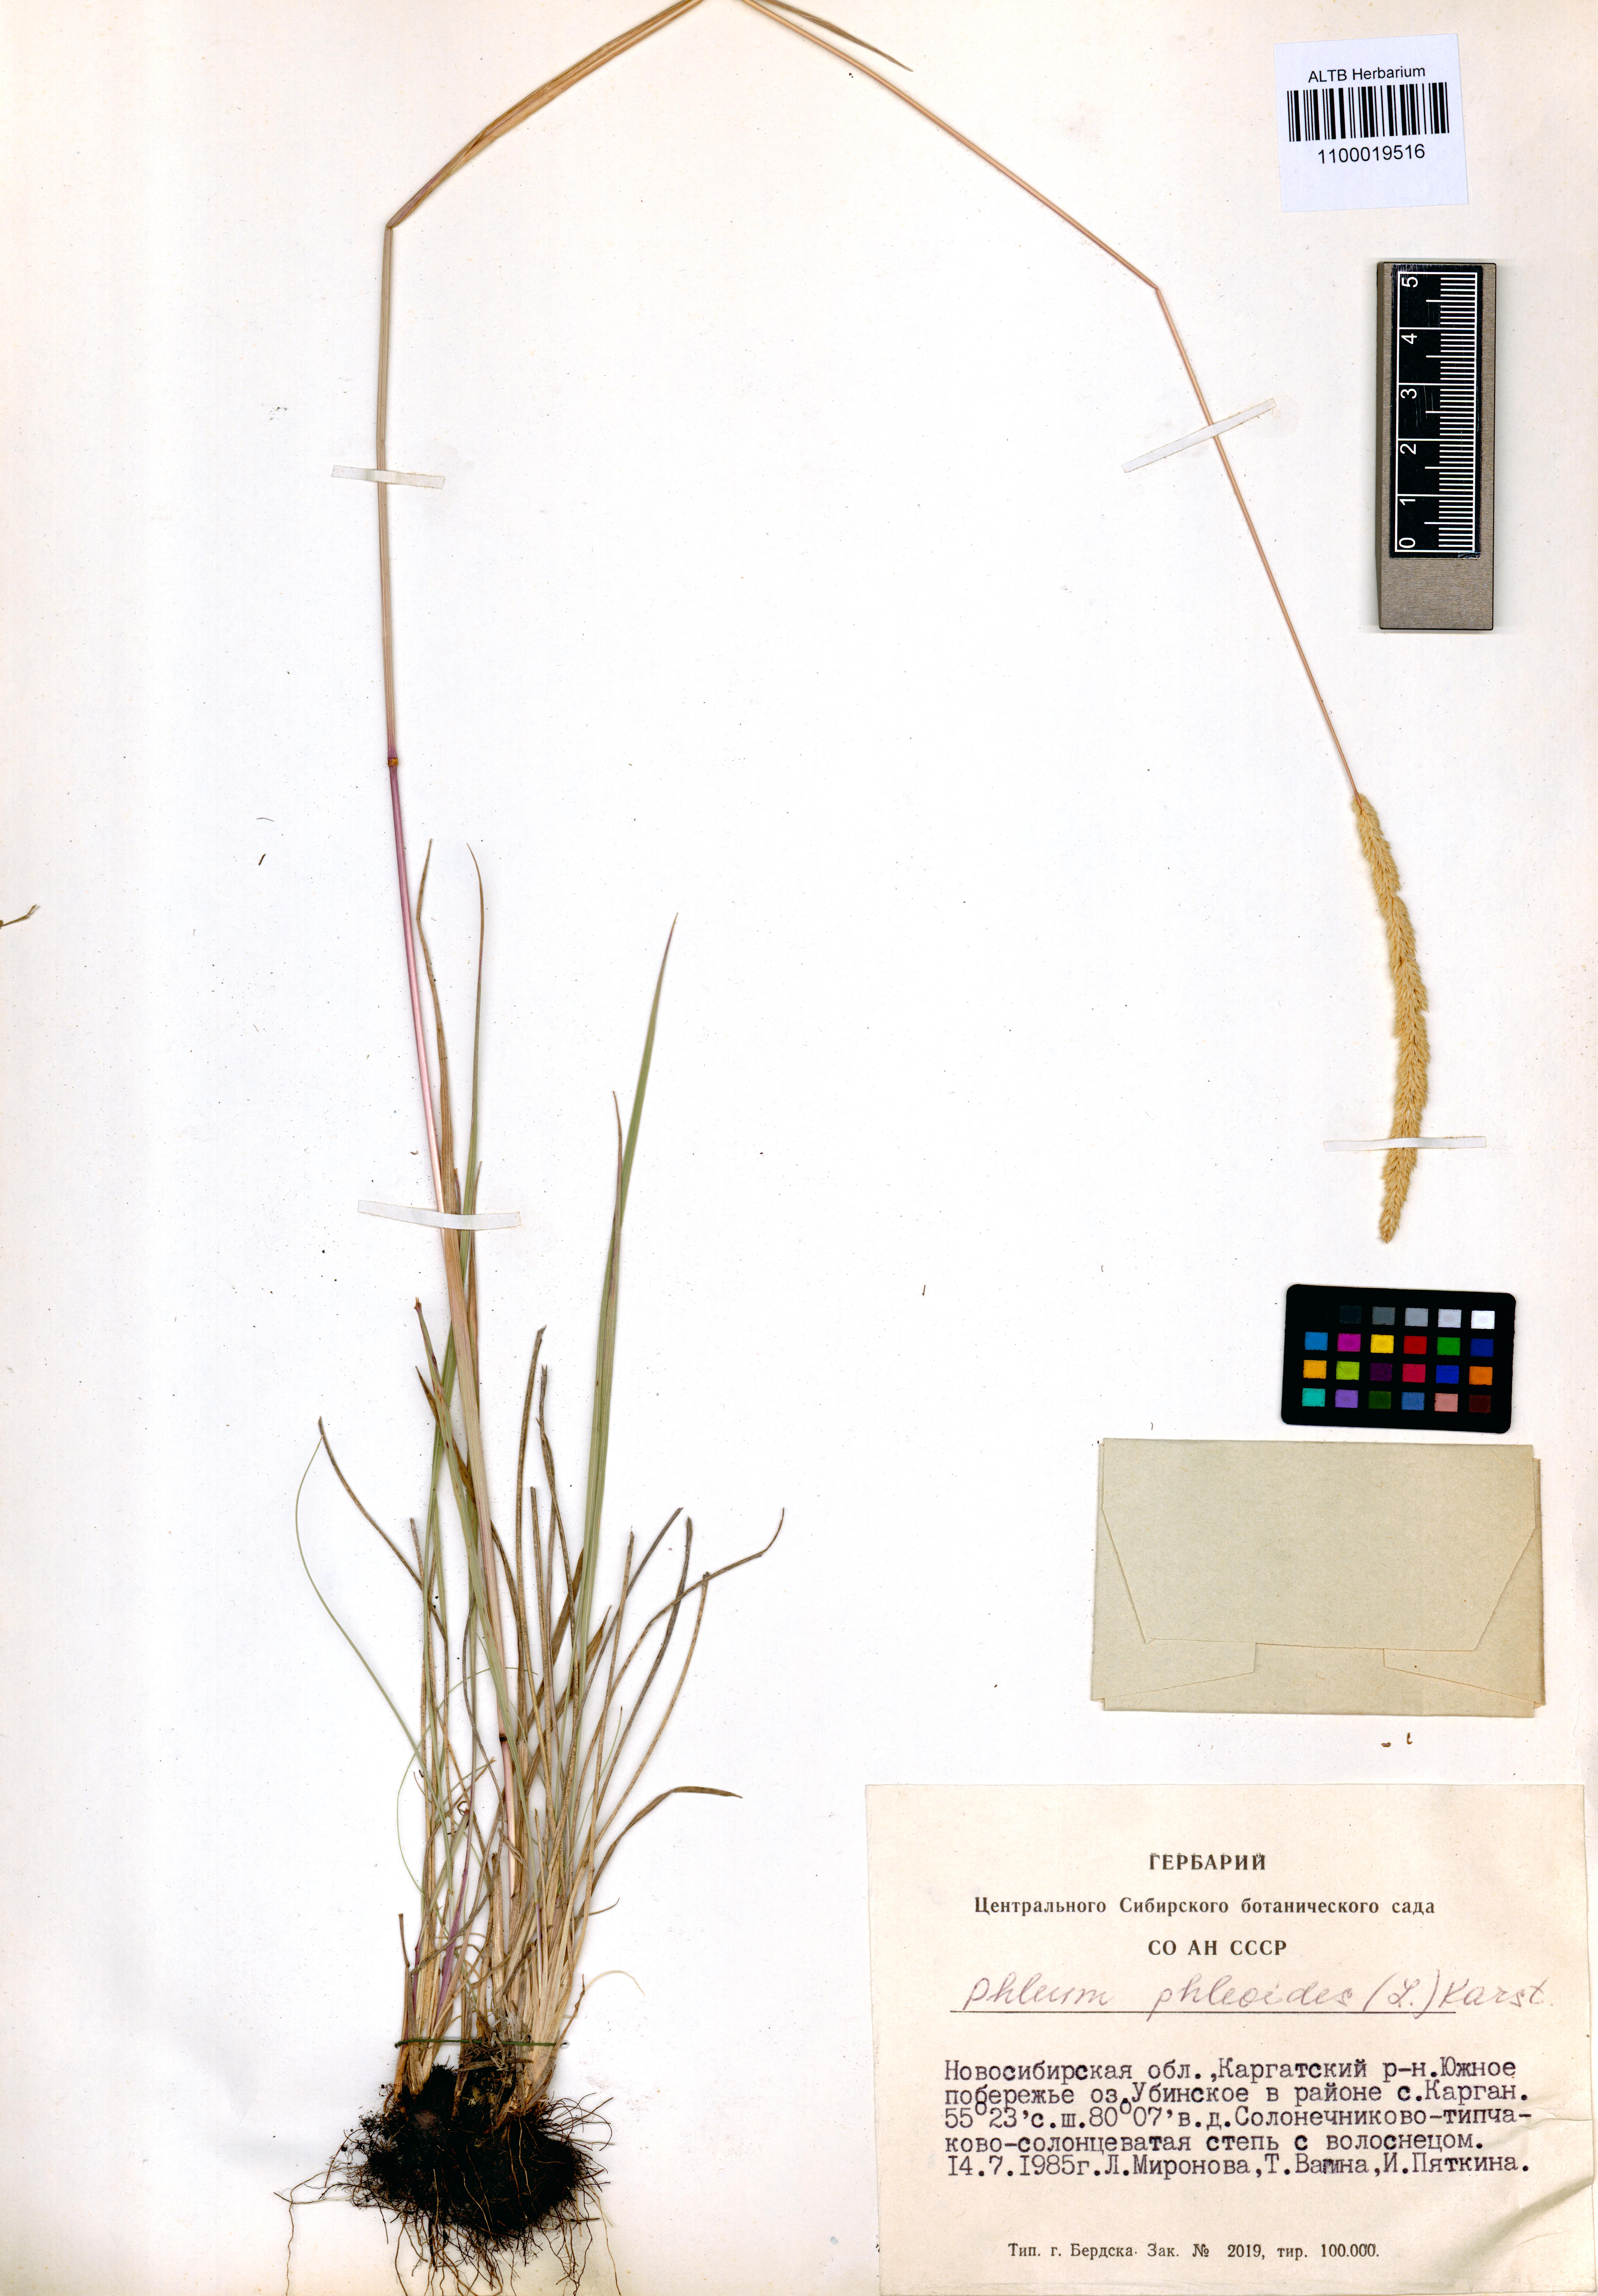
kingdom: Plantae
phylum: Tracheophyta
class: Liliopsida
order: Poales
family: Poaceae
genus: Phleum
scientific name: Phleum phleoides
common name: Purple-stem cat's-tail
